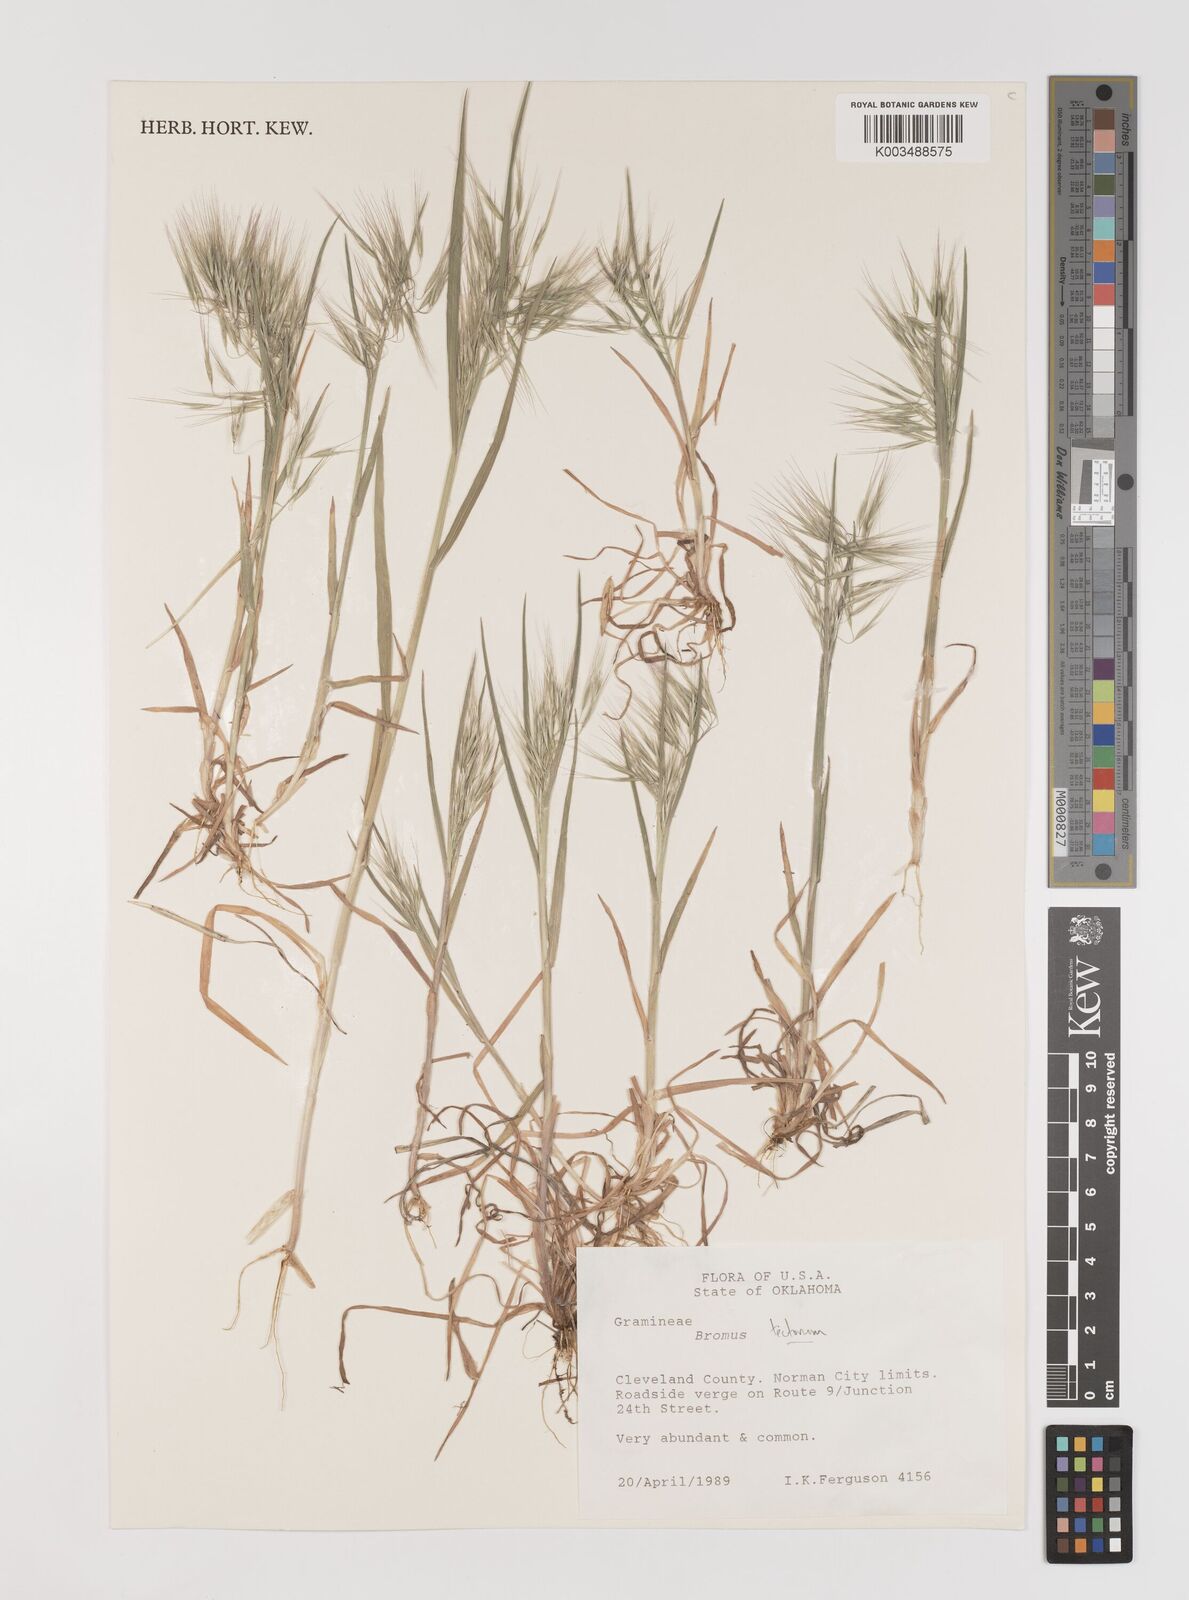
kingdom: Plantae
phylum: Tracheophyta
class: Liliopsida
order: Poales
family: Poaceae
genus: Bromus
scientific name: Bromus tectorum
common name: Cheatgrass
